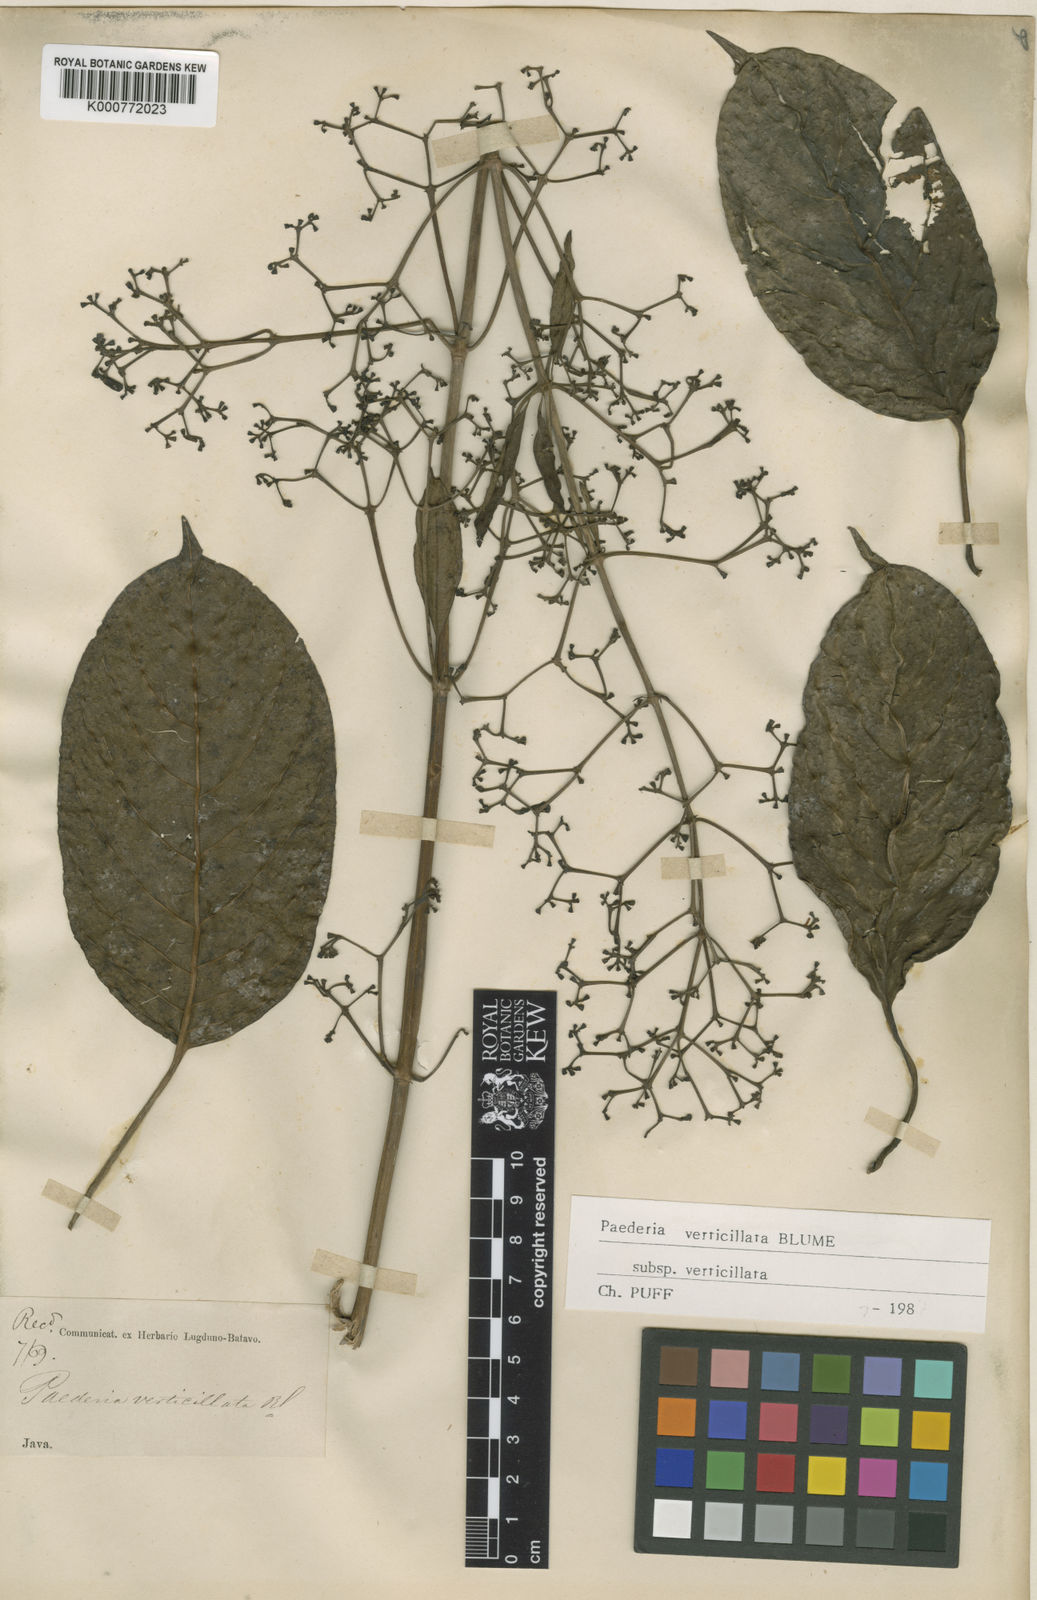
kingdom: Plantae
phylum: Tracheophyta
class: Magnoliopsida
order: Gentianales
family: Rubiaceae
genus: Paederia
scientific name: Paederia verticillata
